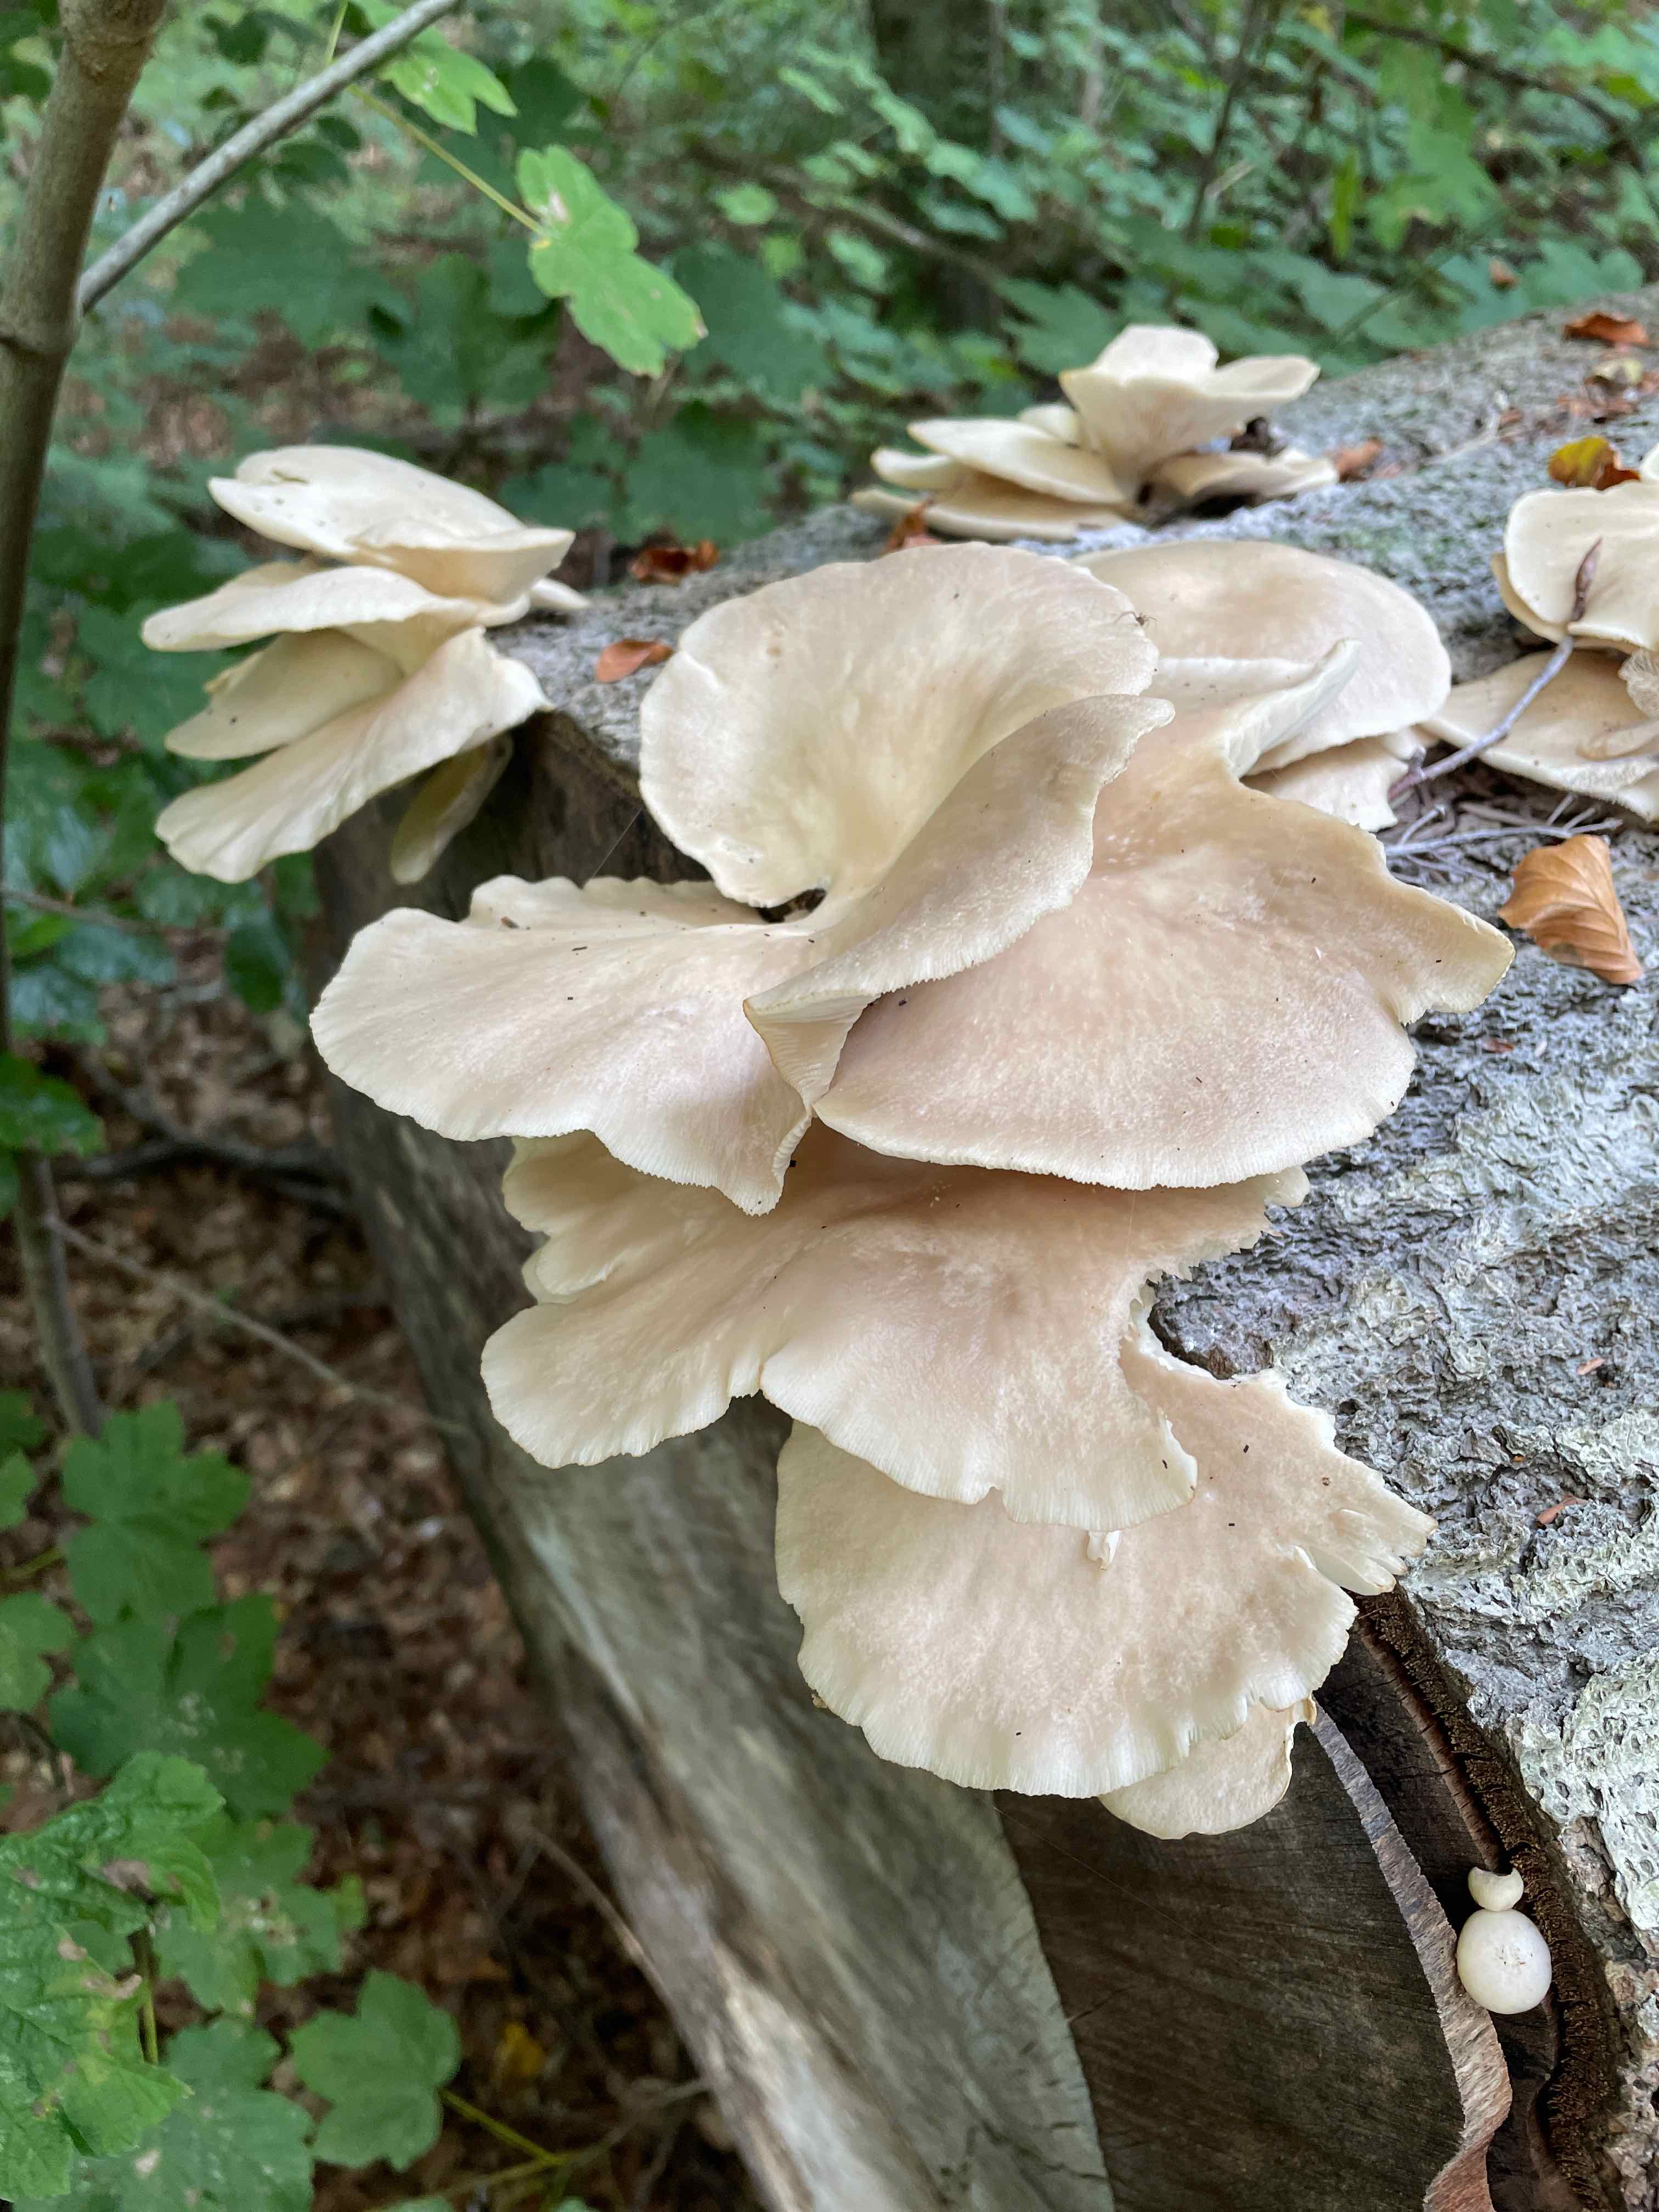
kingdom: Fungi
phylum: Basidiomycota
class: Agaricomycetes
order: Agaricales
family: Pleurotaceae
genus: Pleurotus
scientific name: Pleurotus pulmonarius
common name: sommer-østershat
